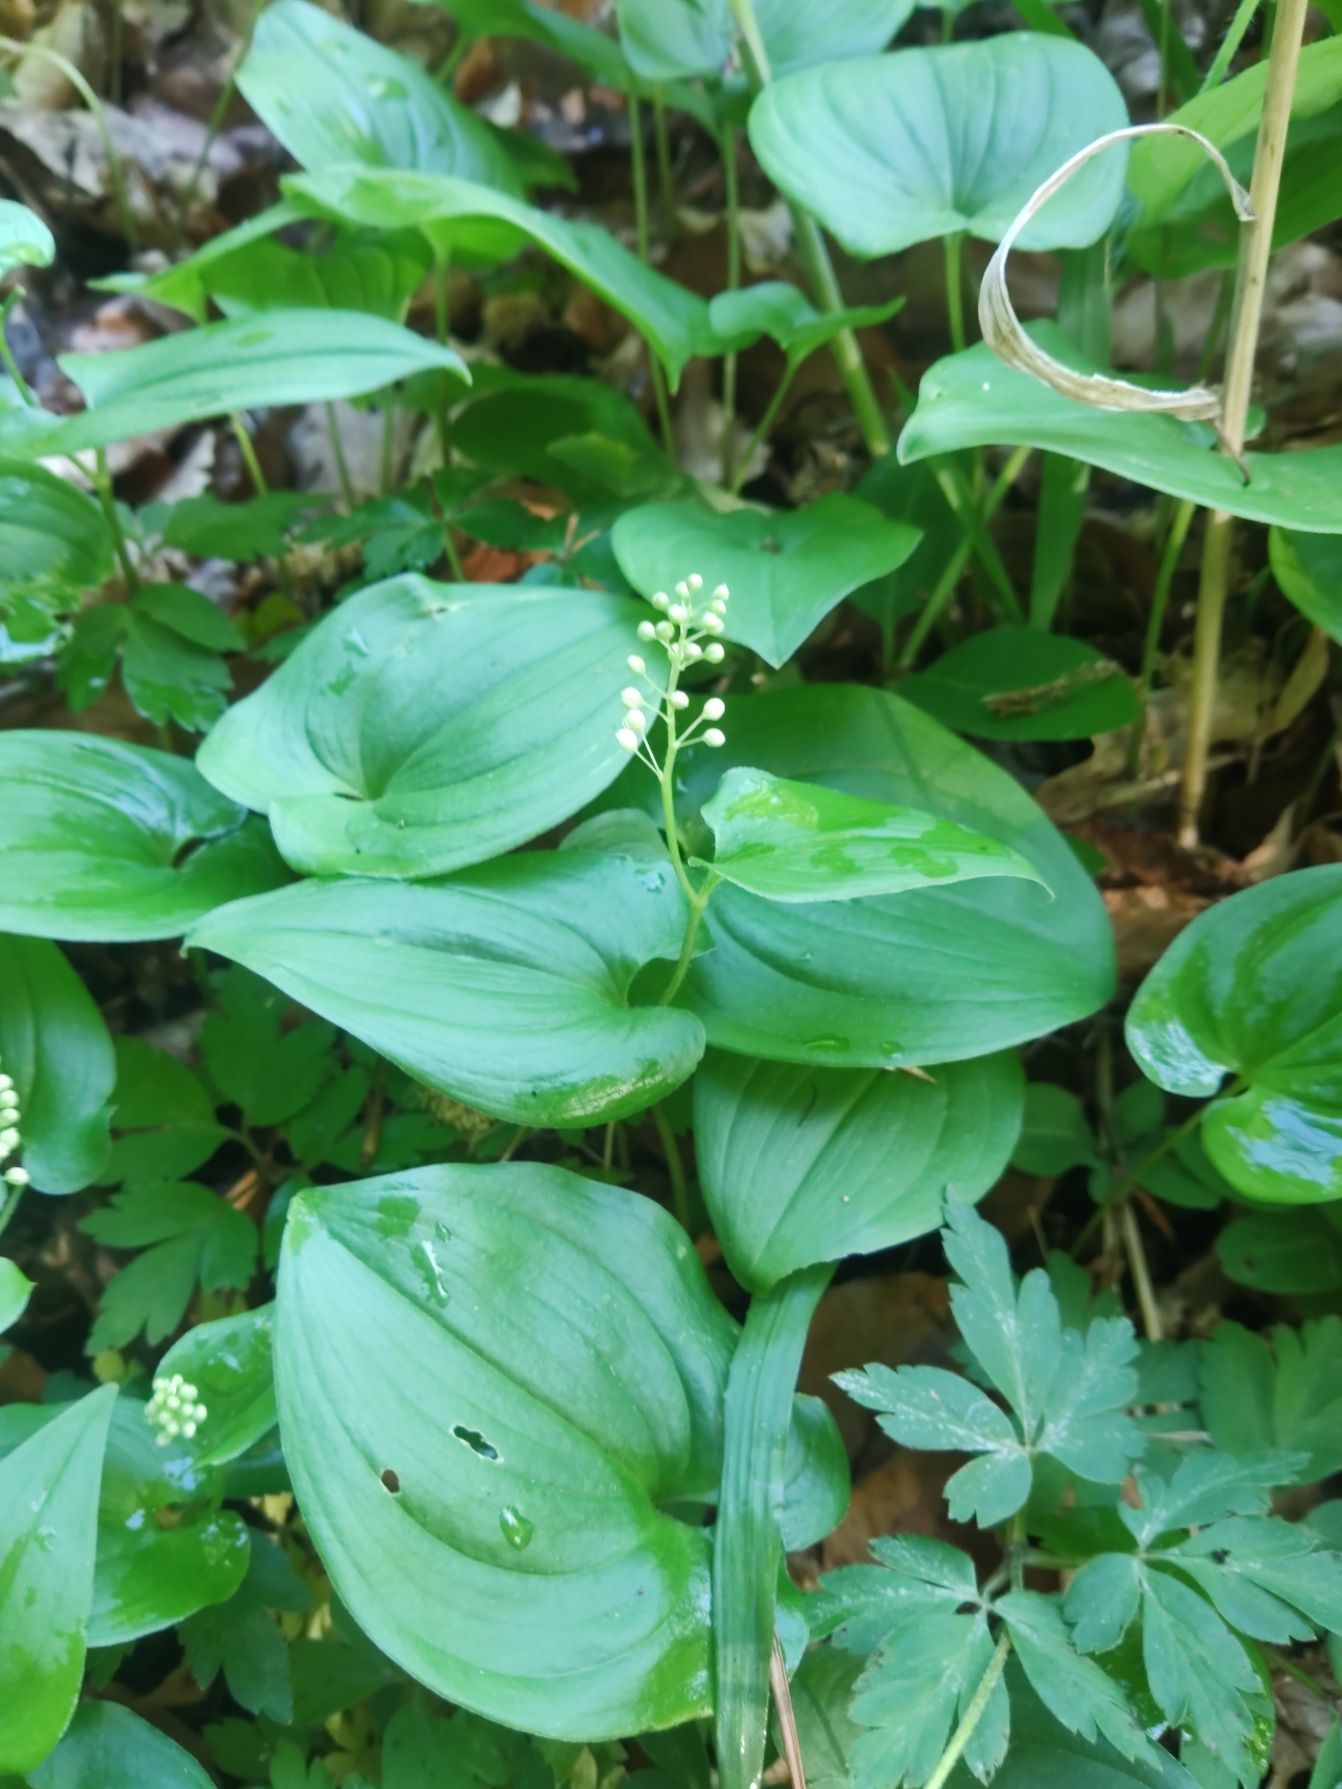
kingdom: Plantae
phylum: Tracheophyta
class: Liliopsida
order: Asparagales
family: Asparagaceae
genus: Maianthemum
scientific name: Maianthemum bifolium
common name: Majblomst
